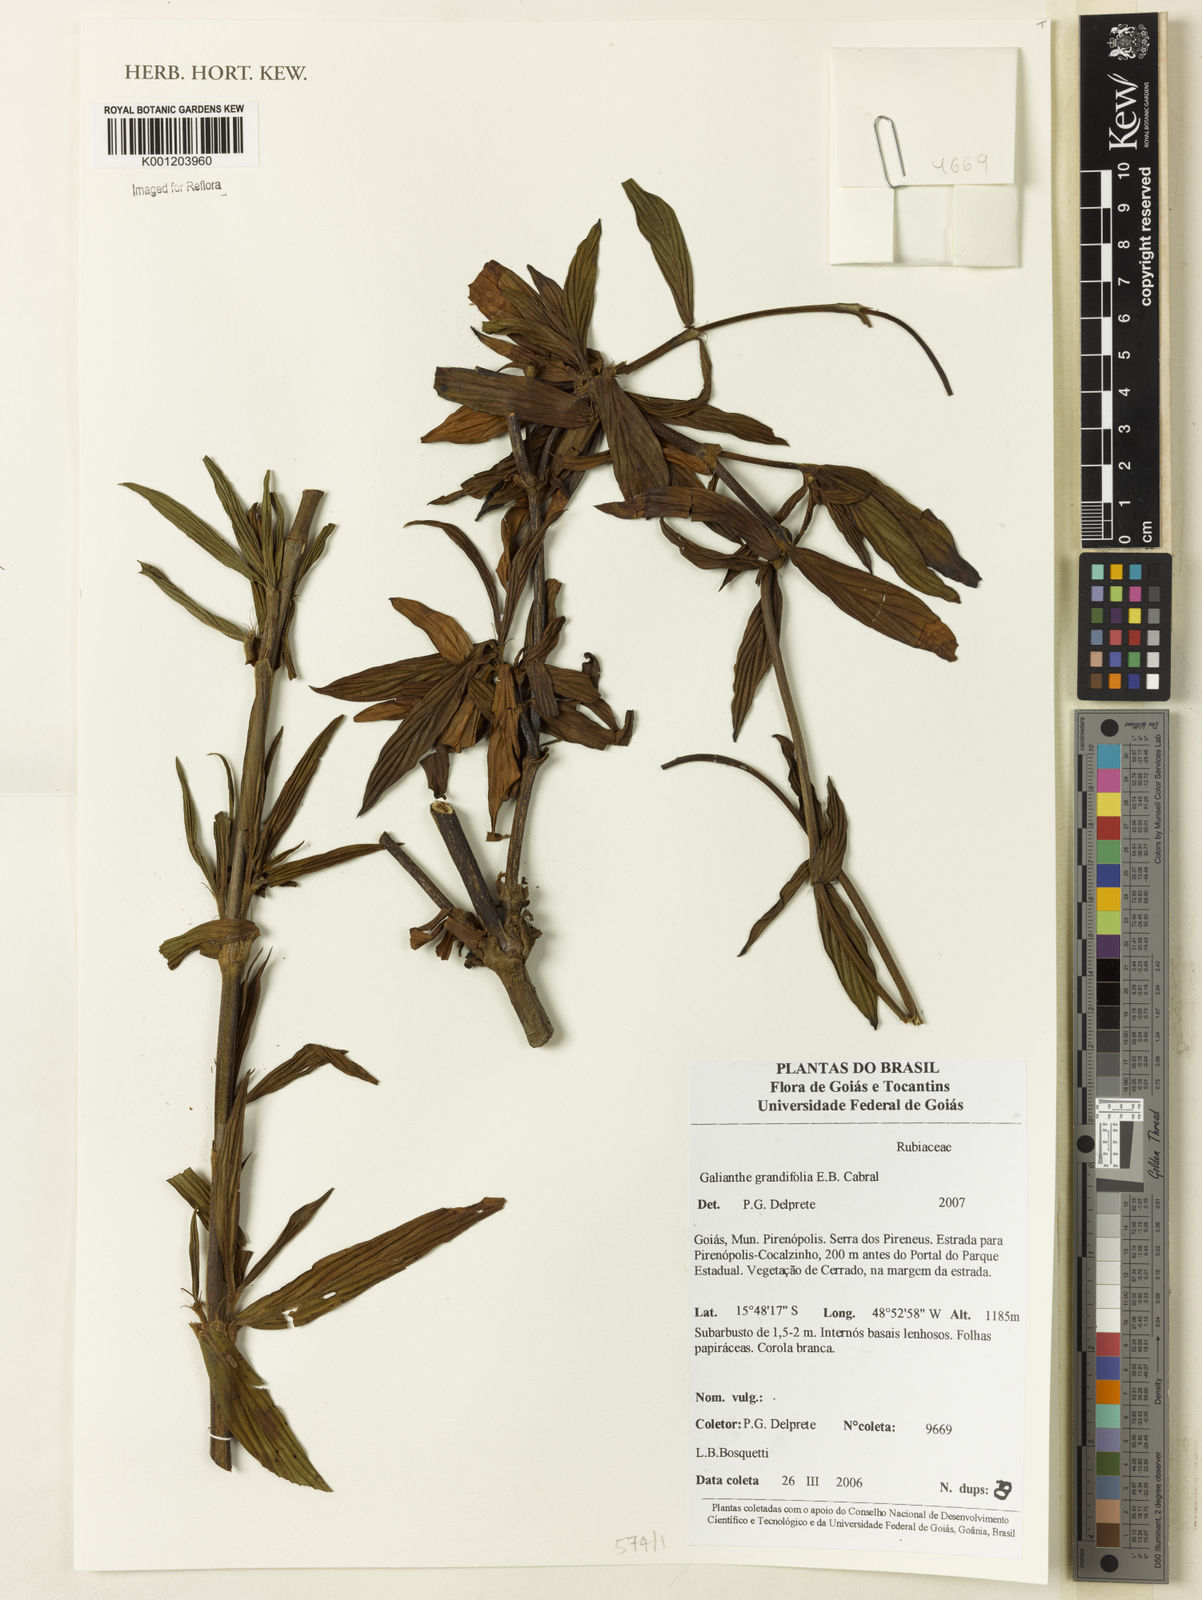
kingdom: Plantae
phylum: Tracheophyta
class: Magnoliopsida
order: Gentianales
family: Rubiaceae
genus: Galianthe
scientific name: Galianthe grandifolia
